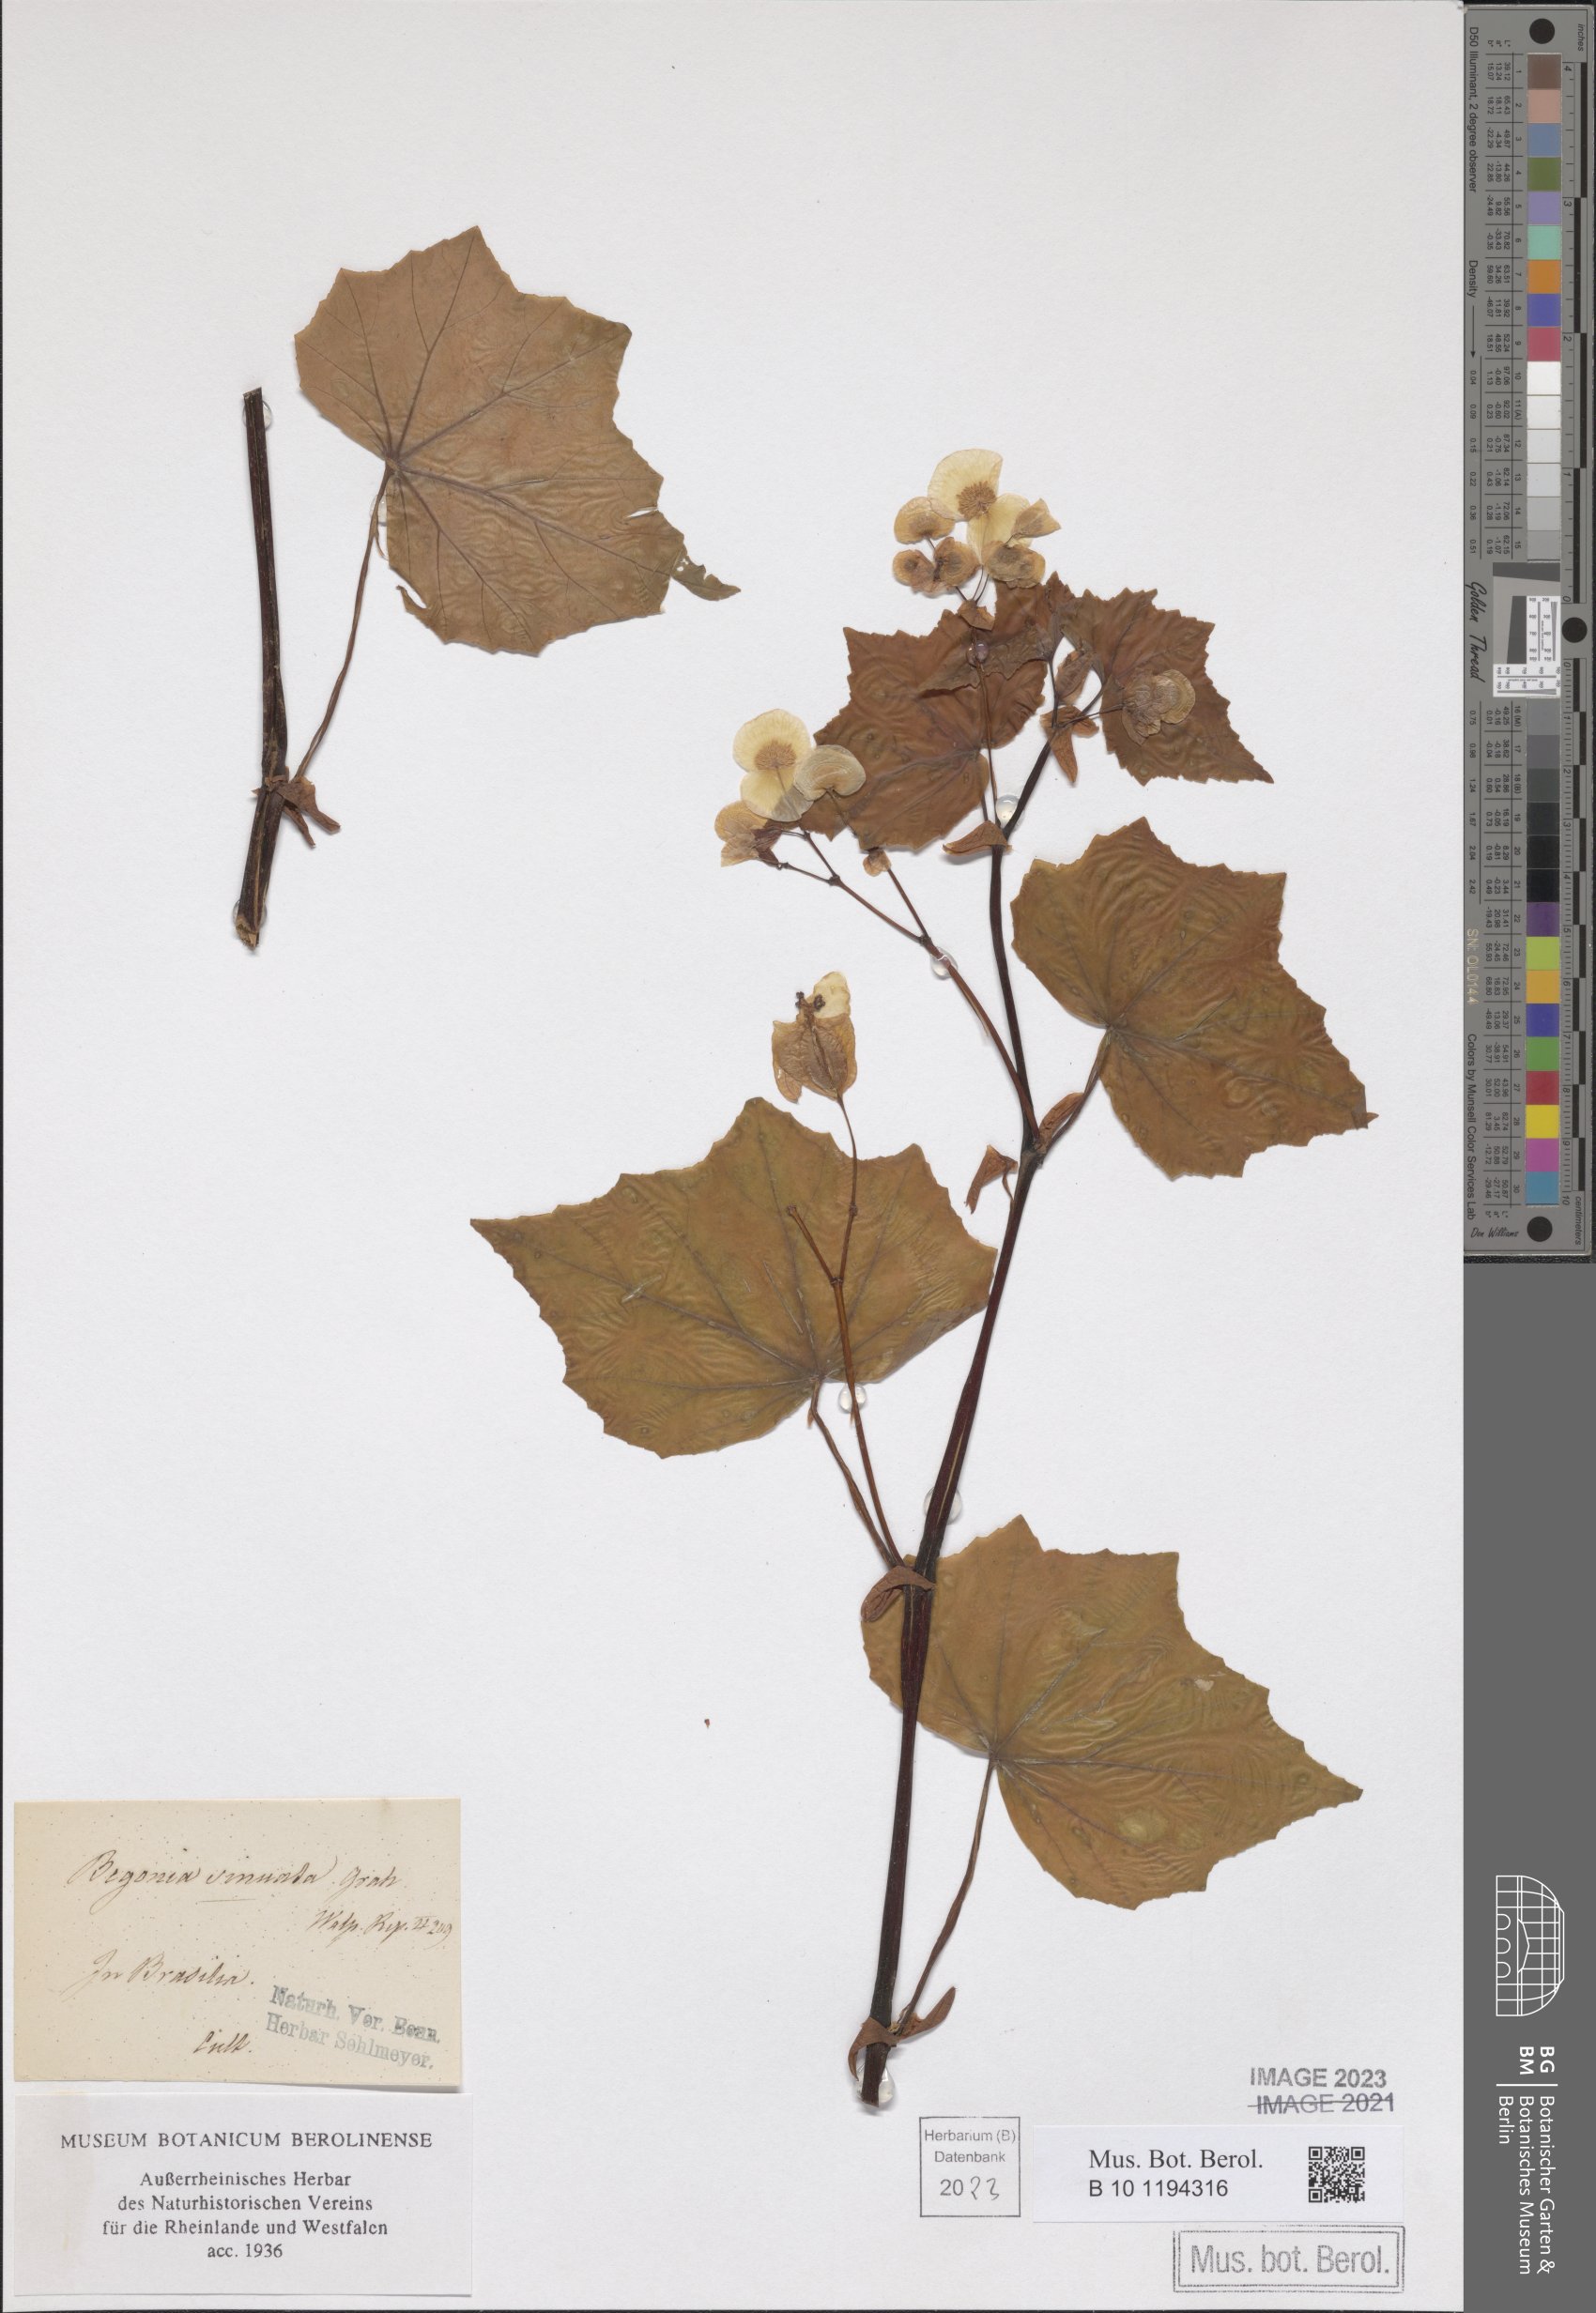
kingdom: Plantae
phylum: Tracheophyta
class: Magnoliopsida
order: Cucurbitales
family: Begoniaceae
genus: Begonia
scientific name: Begonia sinuata
